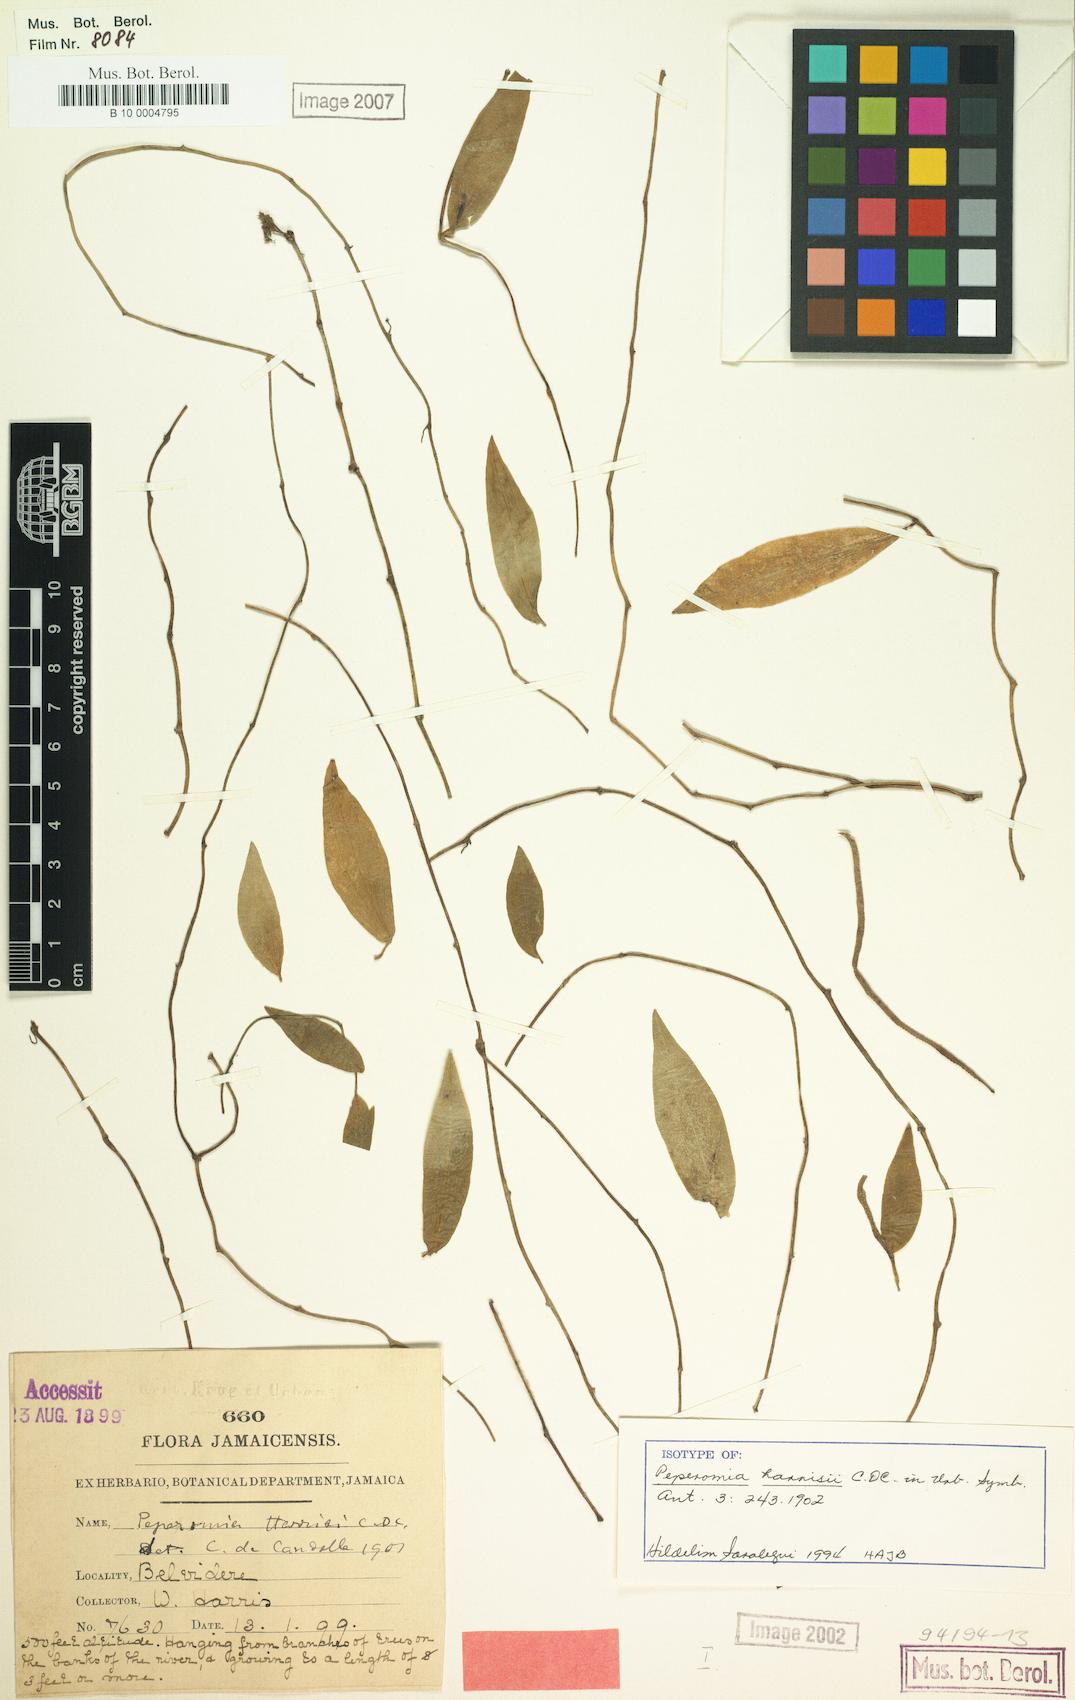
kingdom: Plantae
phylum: Tracheophyta
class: Magnoliopsida
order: Piperales
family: Piperaceae
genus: Peperomia
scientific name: Peperomia harrisii
